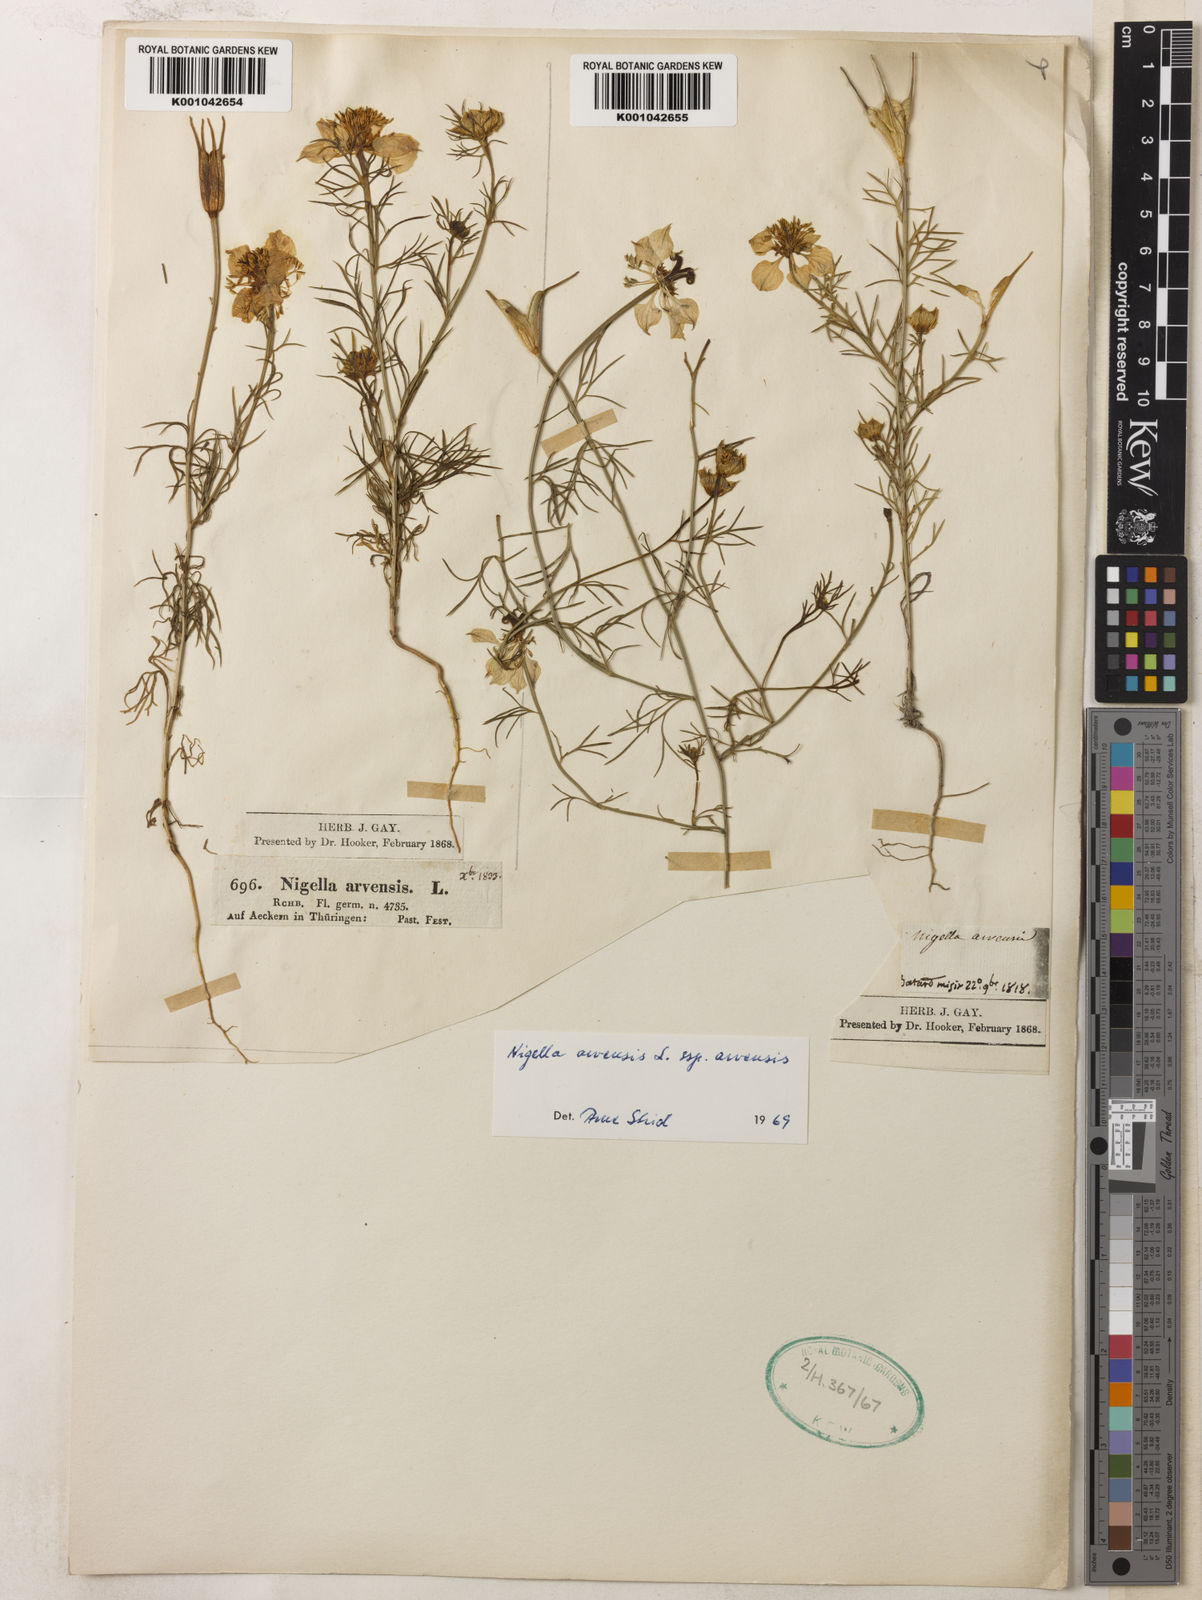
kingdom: Plantae
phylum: Tracheophyta
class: Magnoliopsida
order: Ranunculales
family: Ranunculaceae
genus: Nigella
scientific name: Nigella arvensis
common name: Wild fennel-flower
